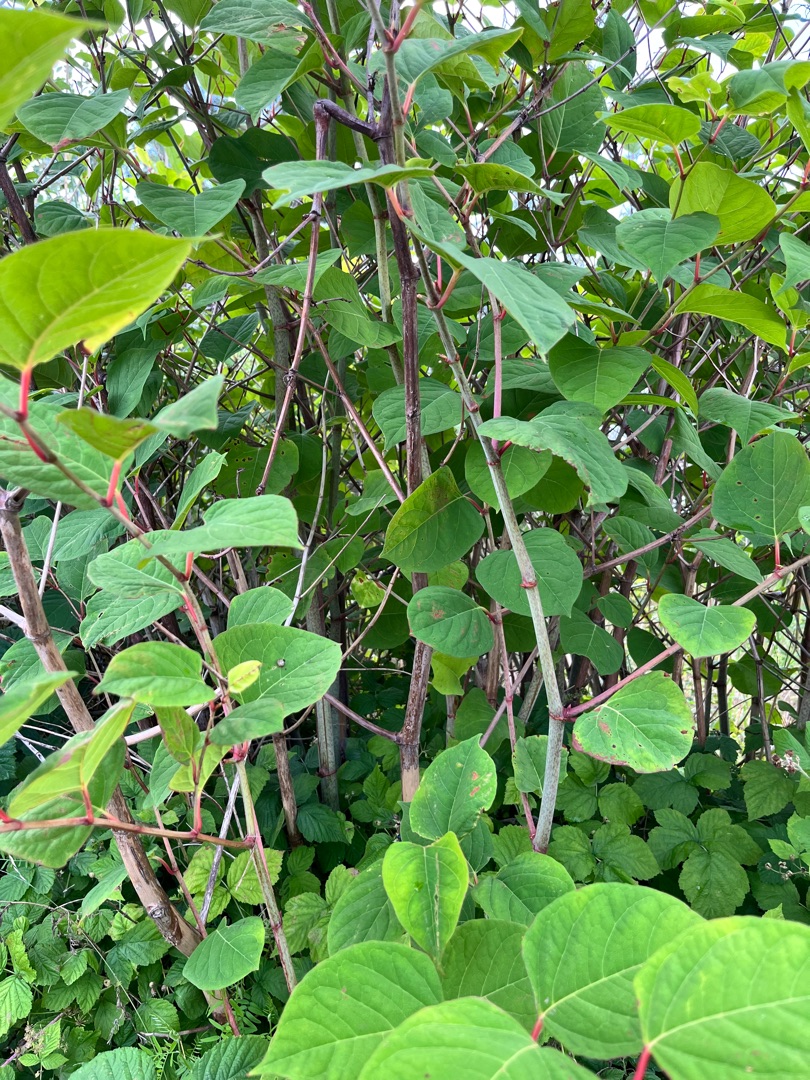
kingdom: Plantae
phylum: Tracheophyta
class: Magnoliopsida
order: Caryophyllales
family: Polygonaceae
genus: Reynoutria
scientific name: Reynoutria japonica
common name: Japan-pileurt
